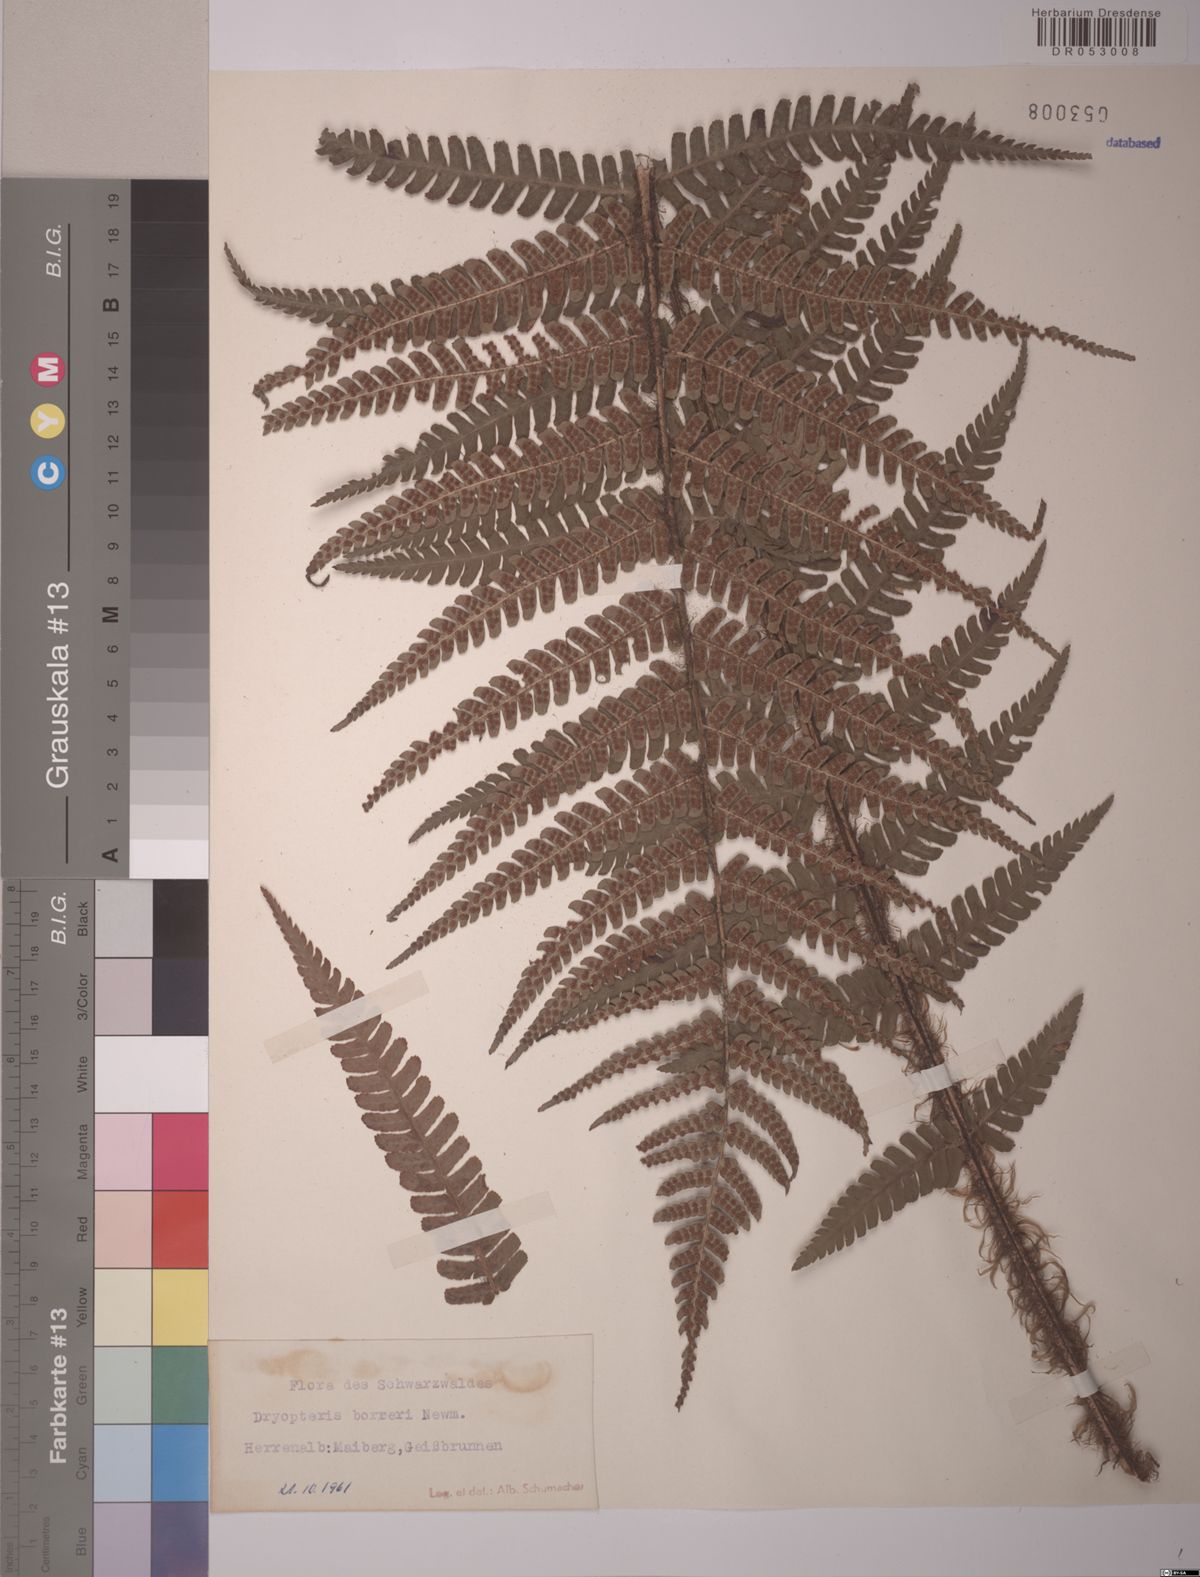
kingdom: Plantae
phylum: Tracheophyta
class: Polypodiopsida
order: Polypodiales
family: Dryopteridaceae
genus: Dryopteris
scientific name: Dryopteris borreri
